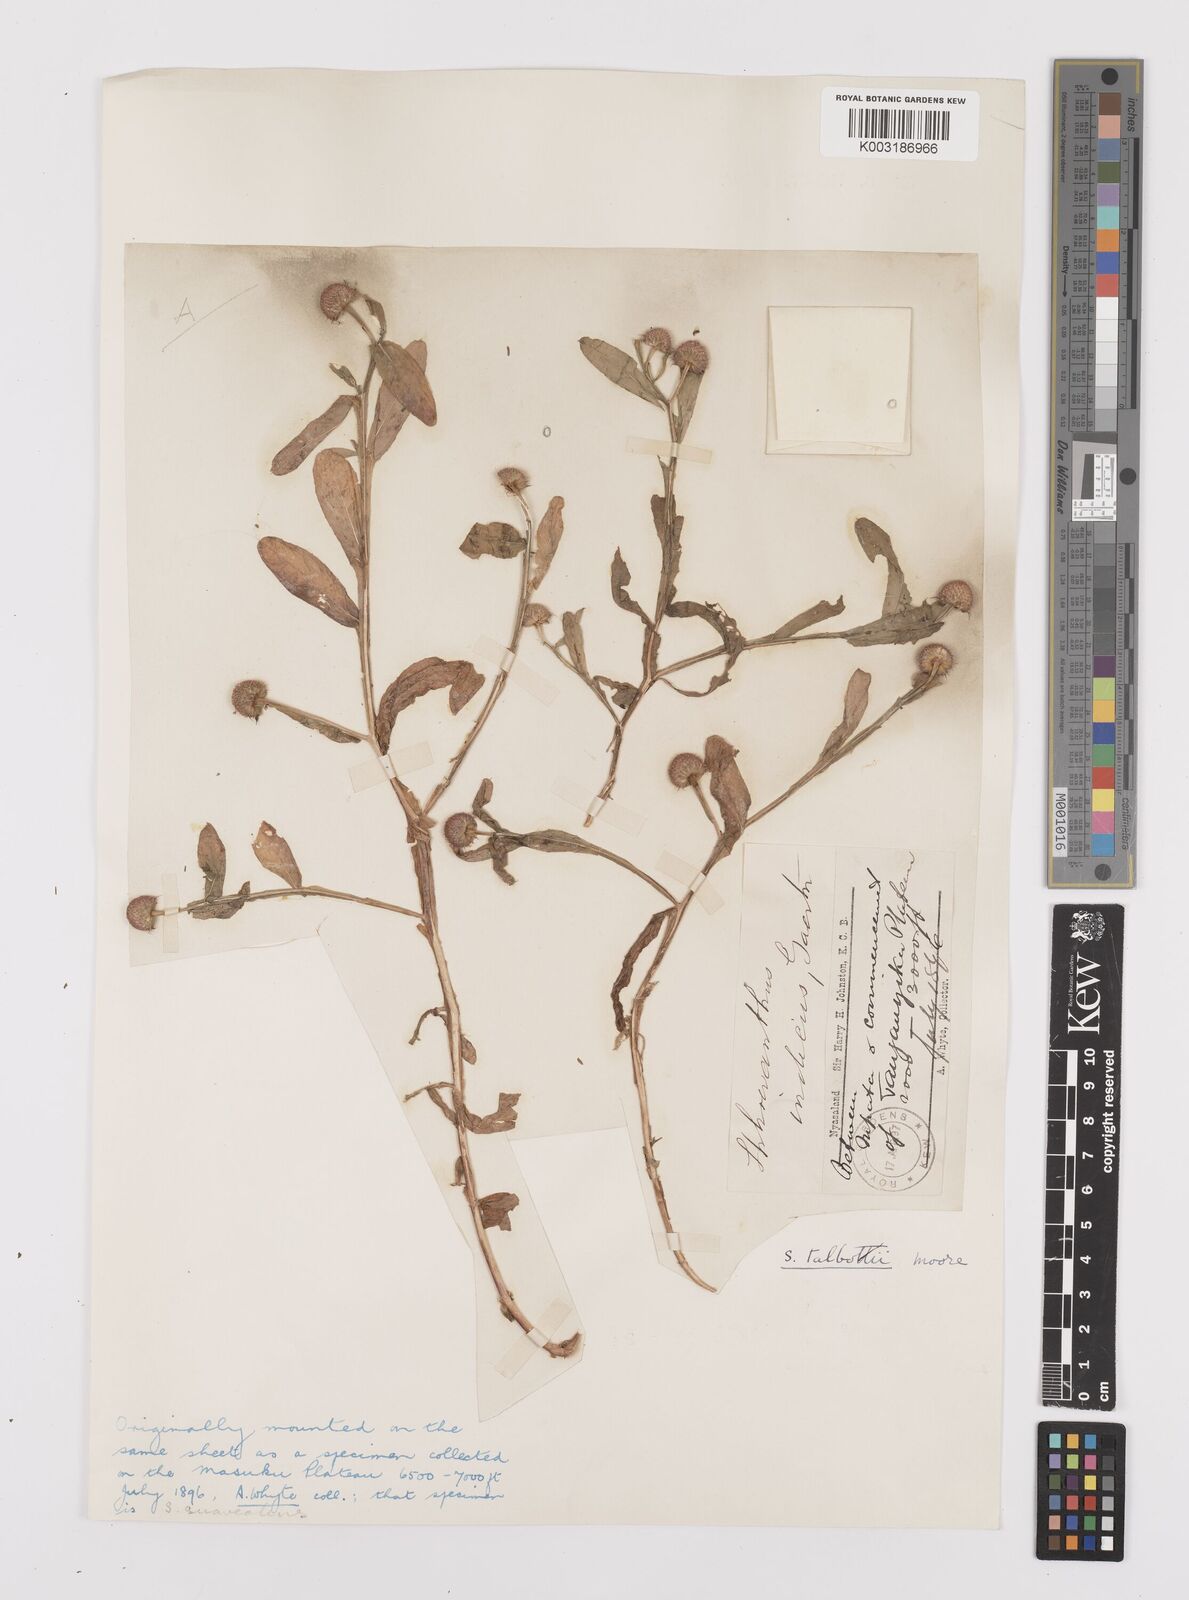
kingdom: Plantae
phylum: Tracheophyta
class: Magnoliopsida
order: Asterales
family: Asteraceae
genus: Sphaeranthus
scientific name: Sphaeranthus talbotii
